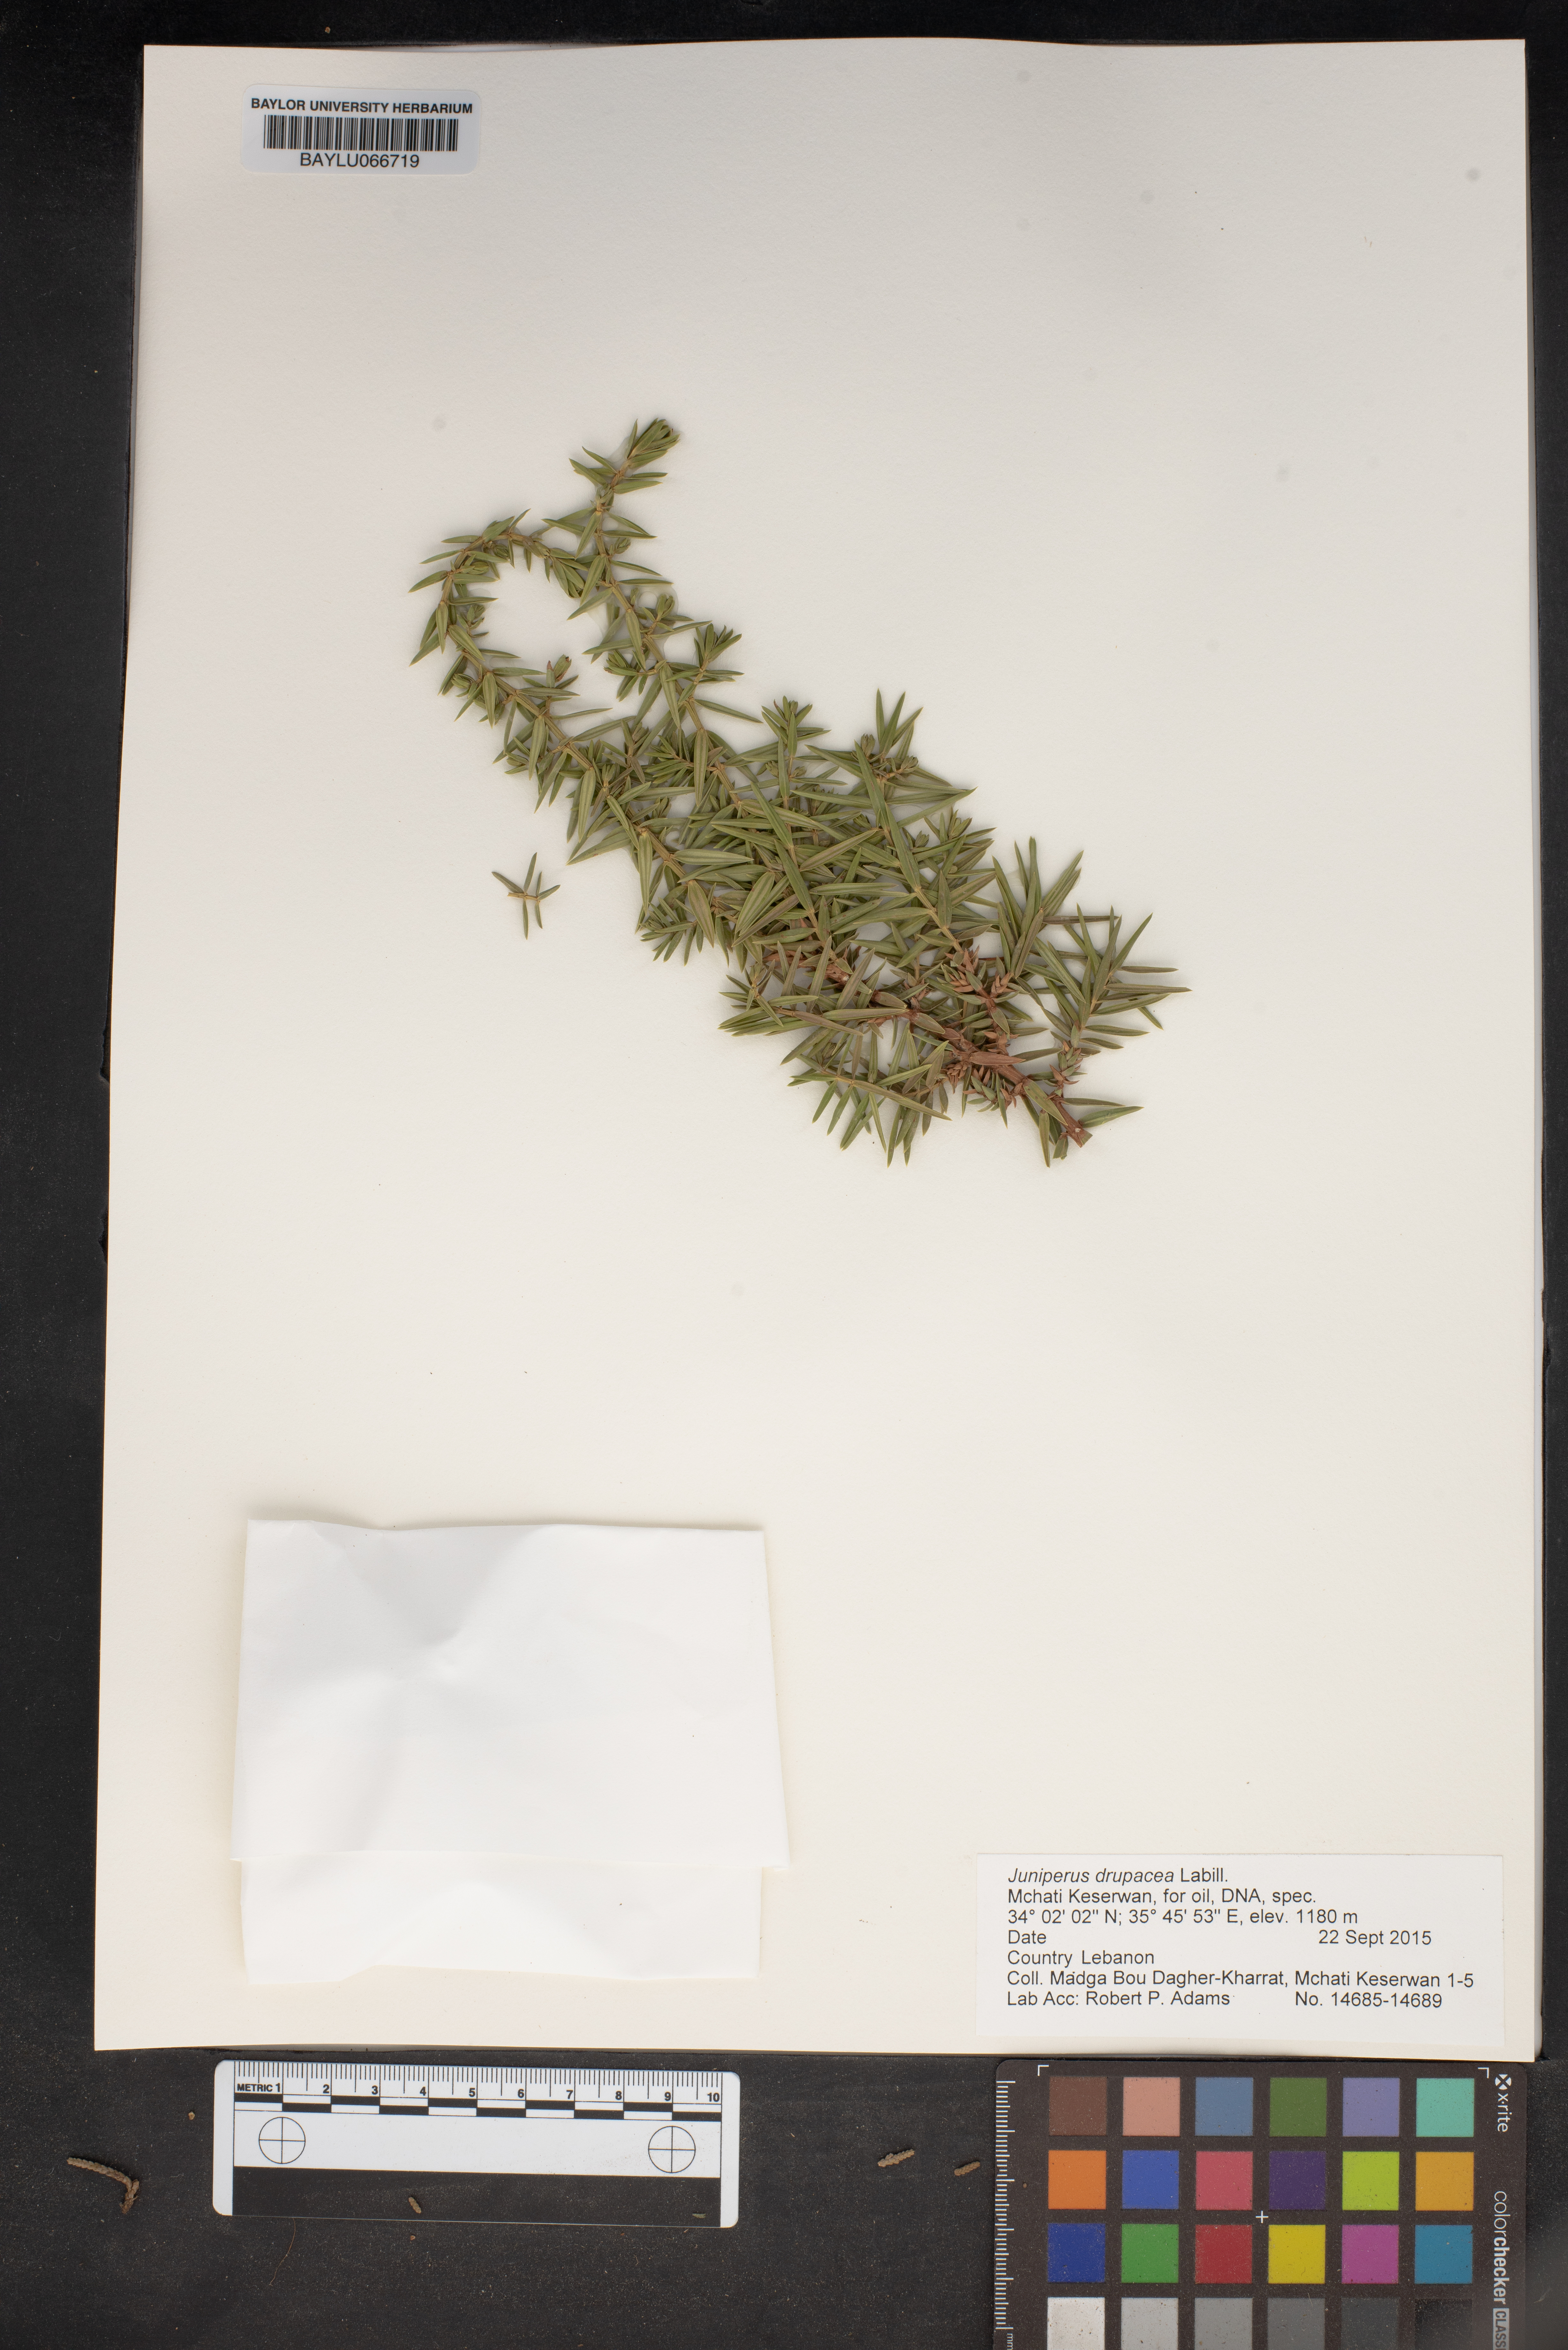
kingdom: Plantae
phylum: Tracheophyta
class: Pinopsida
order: Pinales
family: Cupressaceae
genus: Juniperus
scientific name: Juniperus drupacea
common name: Syrian juniper
